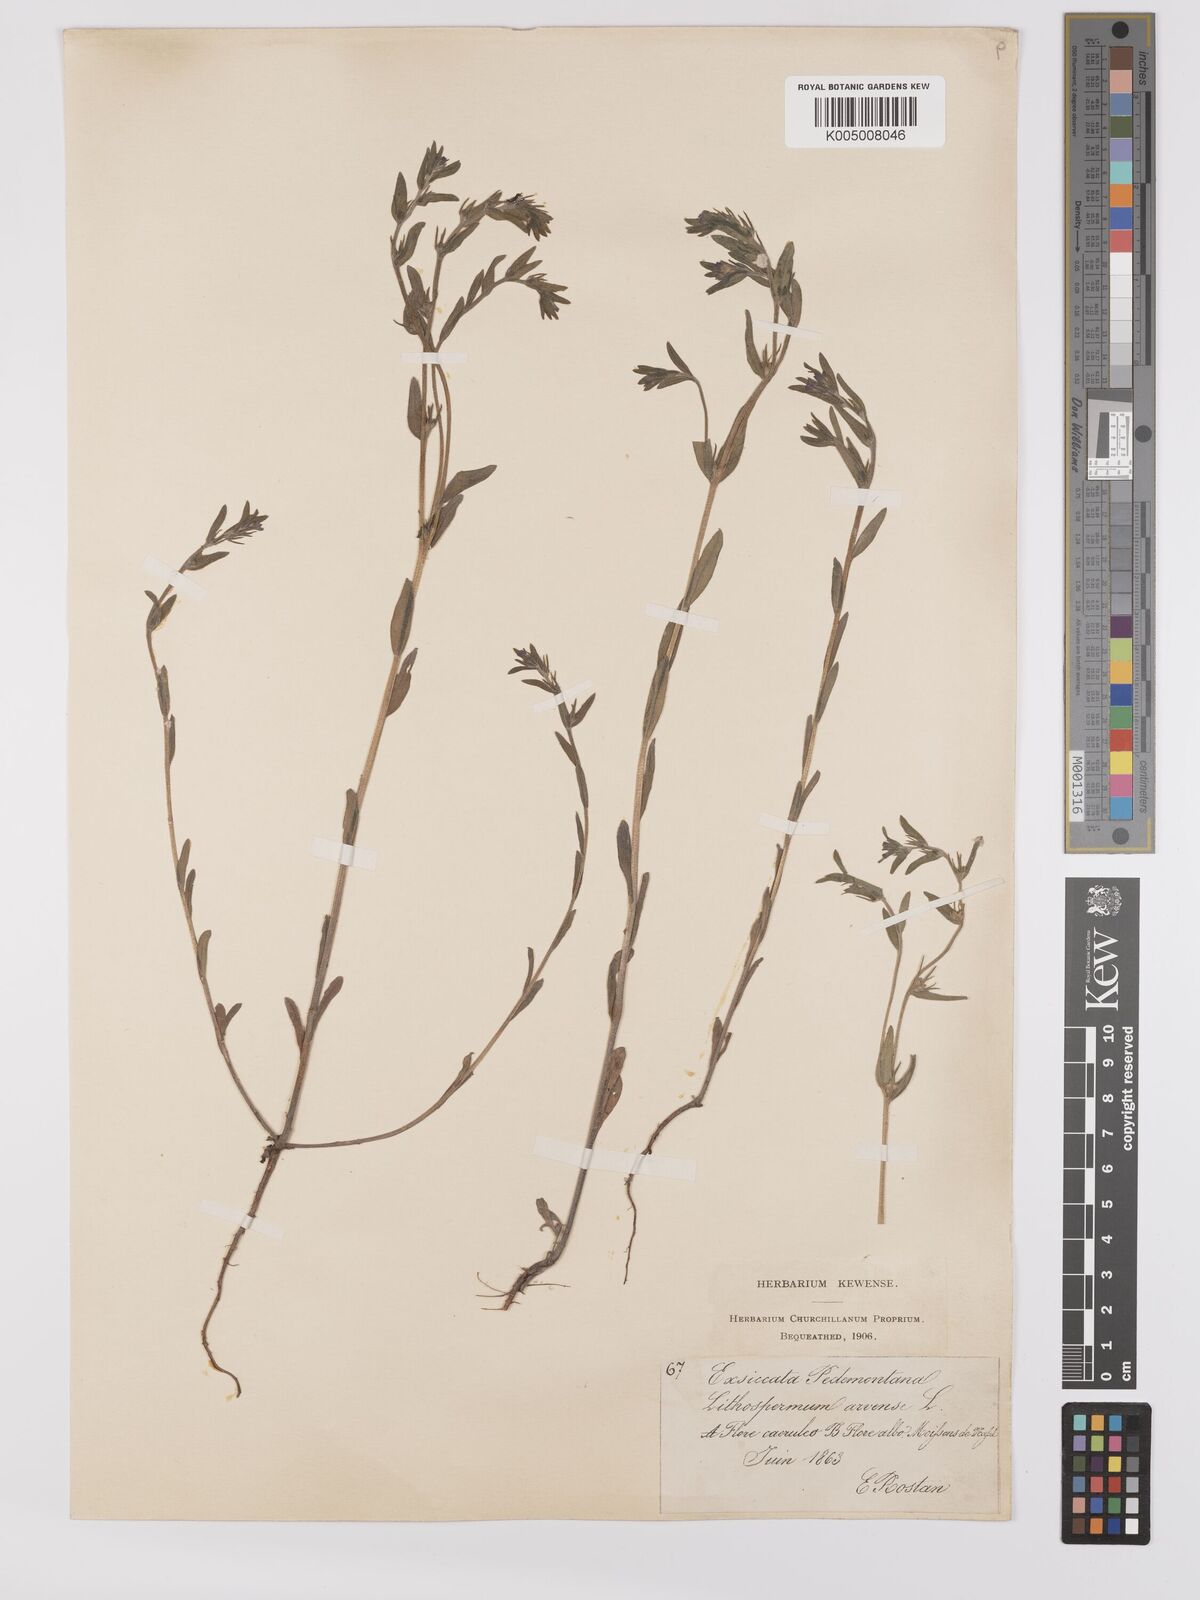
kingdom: Plantae
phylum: Tracheophyta
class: Magnoliopsida
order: Boraginales
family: Boraginaceae
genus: Buglossoides
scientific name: Buglossoides incrassata
